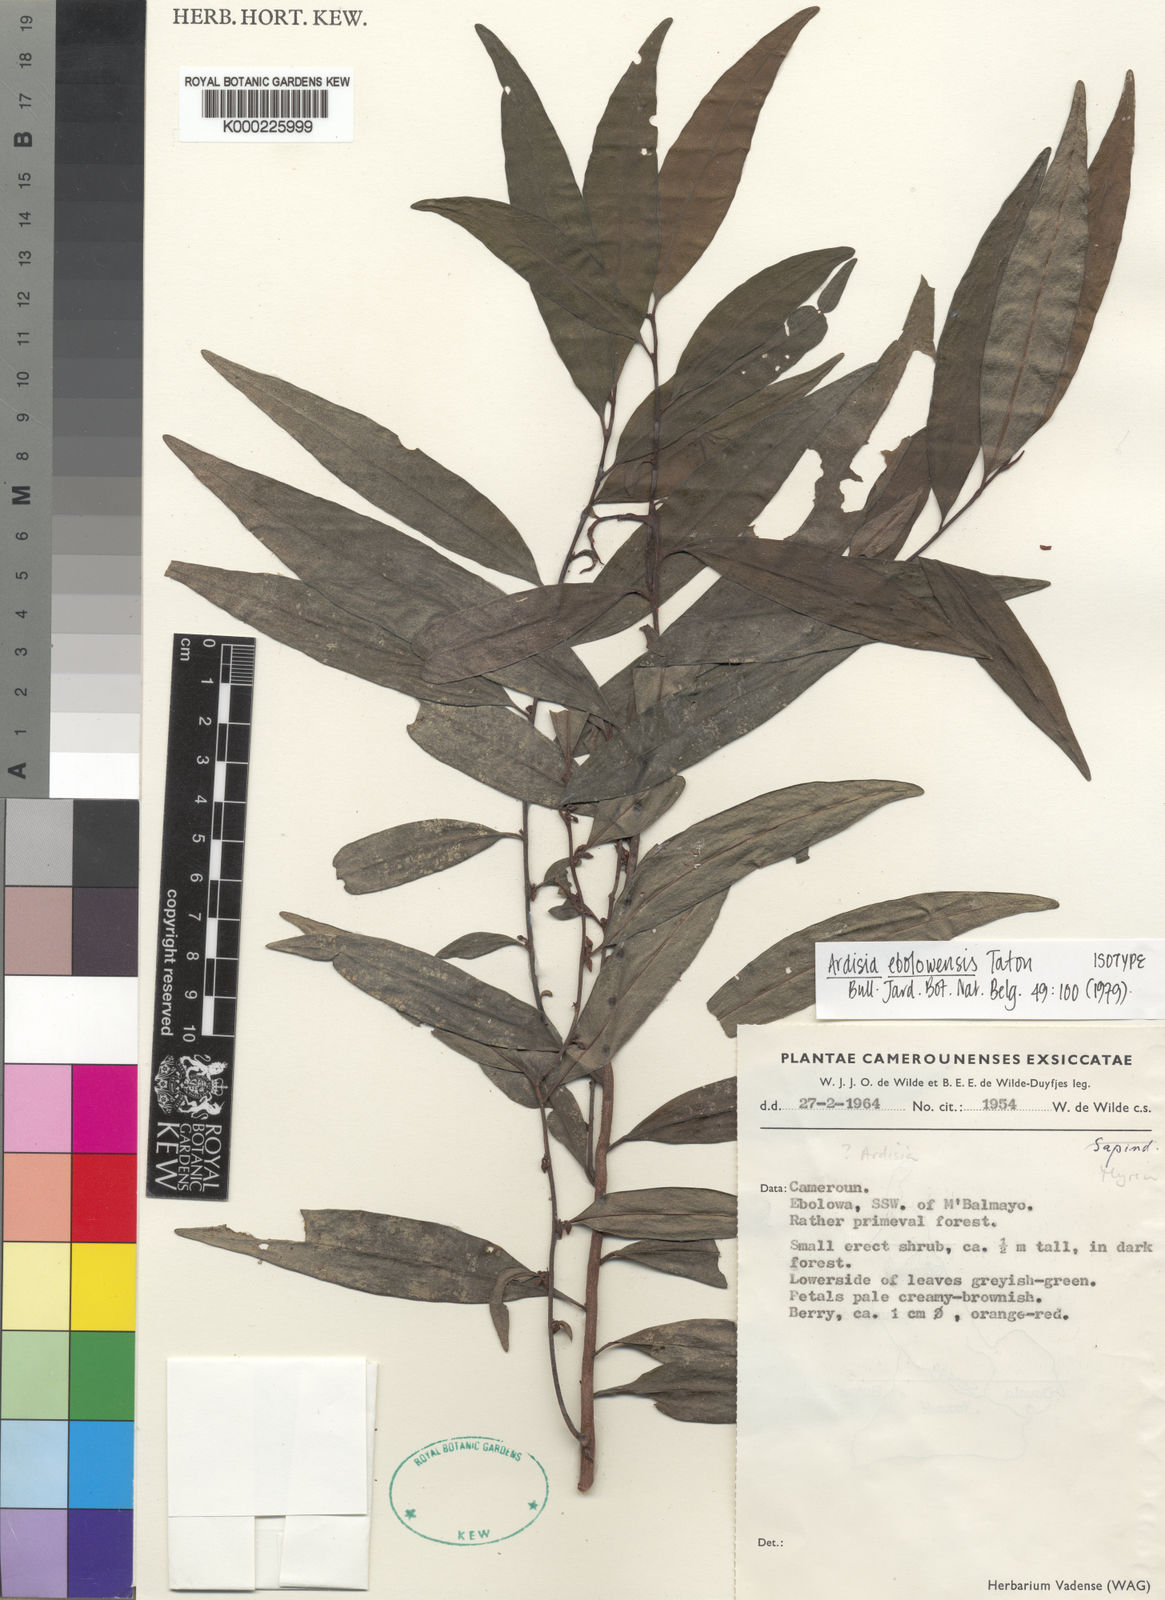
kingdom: Plantae
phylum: Tracheophyta
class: Magnoliopsida
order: Ericales
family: Primulaceae
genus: Ardisia
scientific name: Ardisia ebolowensis
